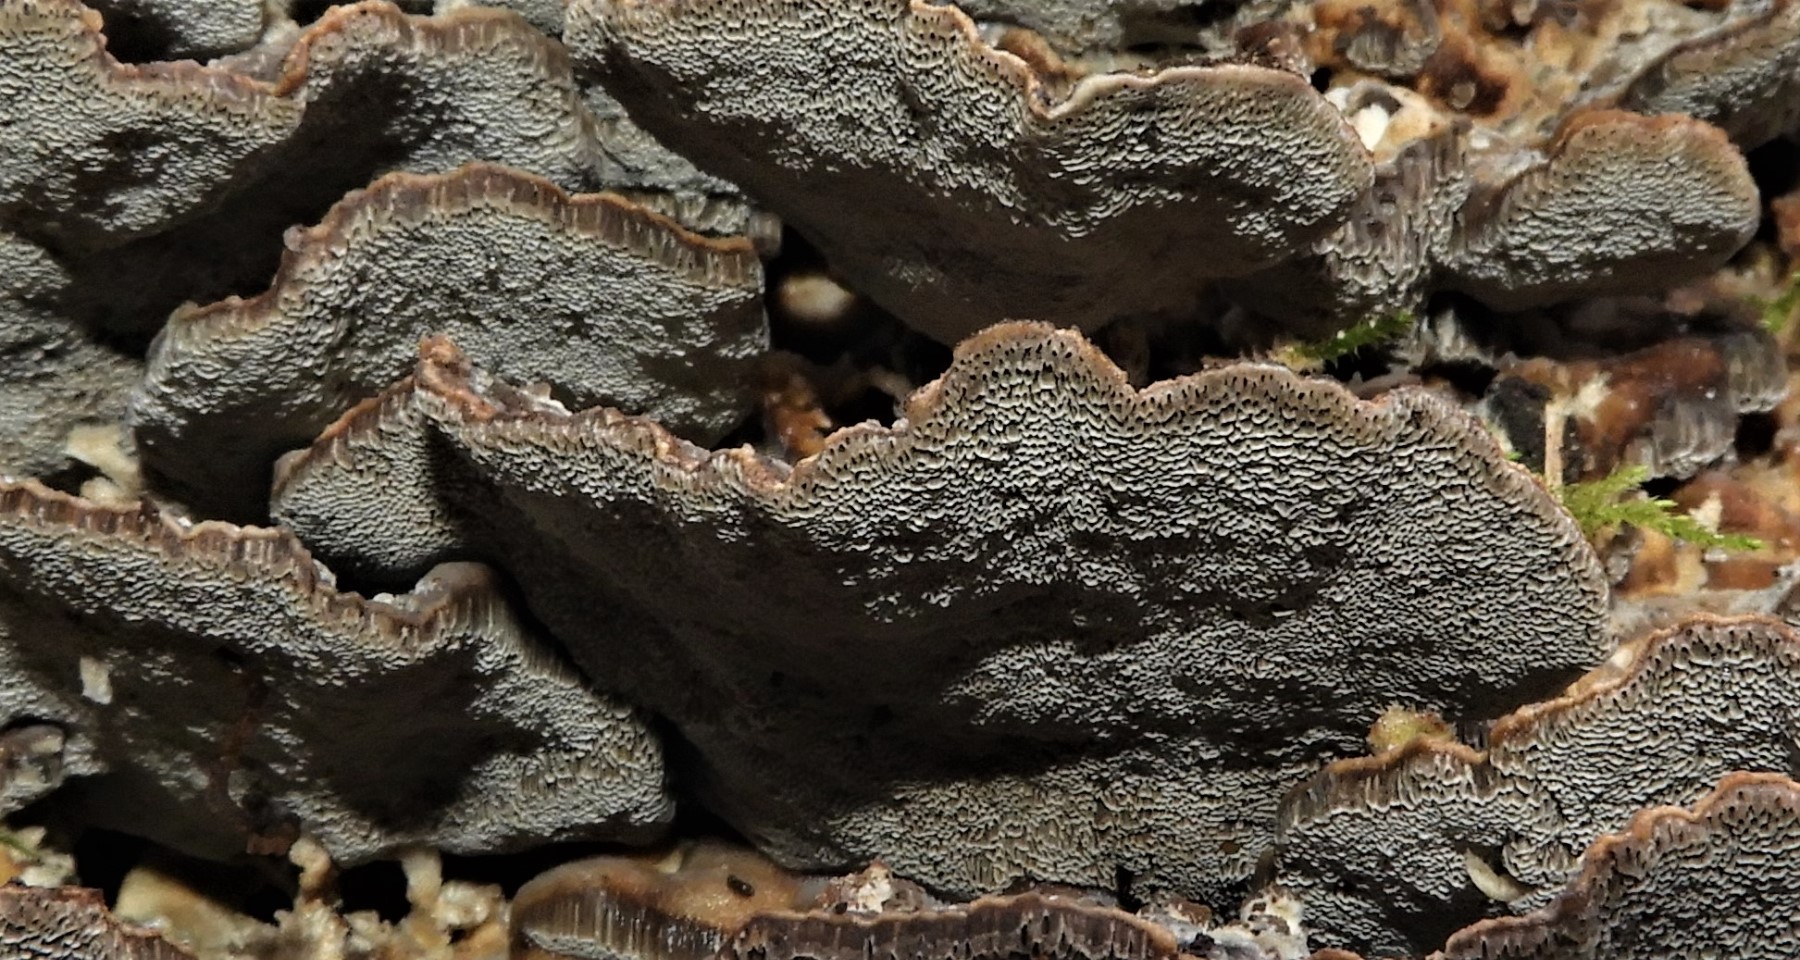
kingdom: Fungi
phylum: Basidiomycota
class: Agaricomycetes
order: Polyporales
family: Phanerochaetaceae
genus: Bjerkandera
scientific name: Bjerkandera adusta
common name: sveden sodporesvamp
